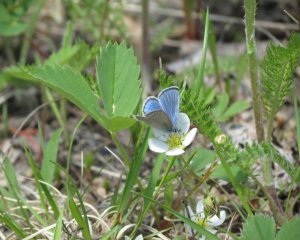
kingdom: Animalia
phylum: Arthropoda
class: Insecta
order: Lepidoptera
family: Lycaenidae
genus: Glaucopsyche
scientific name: Glaucopsyche lygdamus
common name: Silvery Blue
